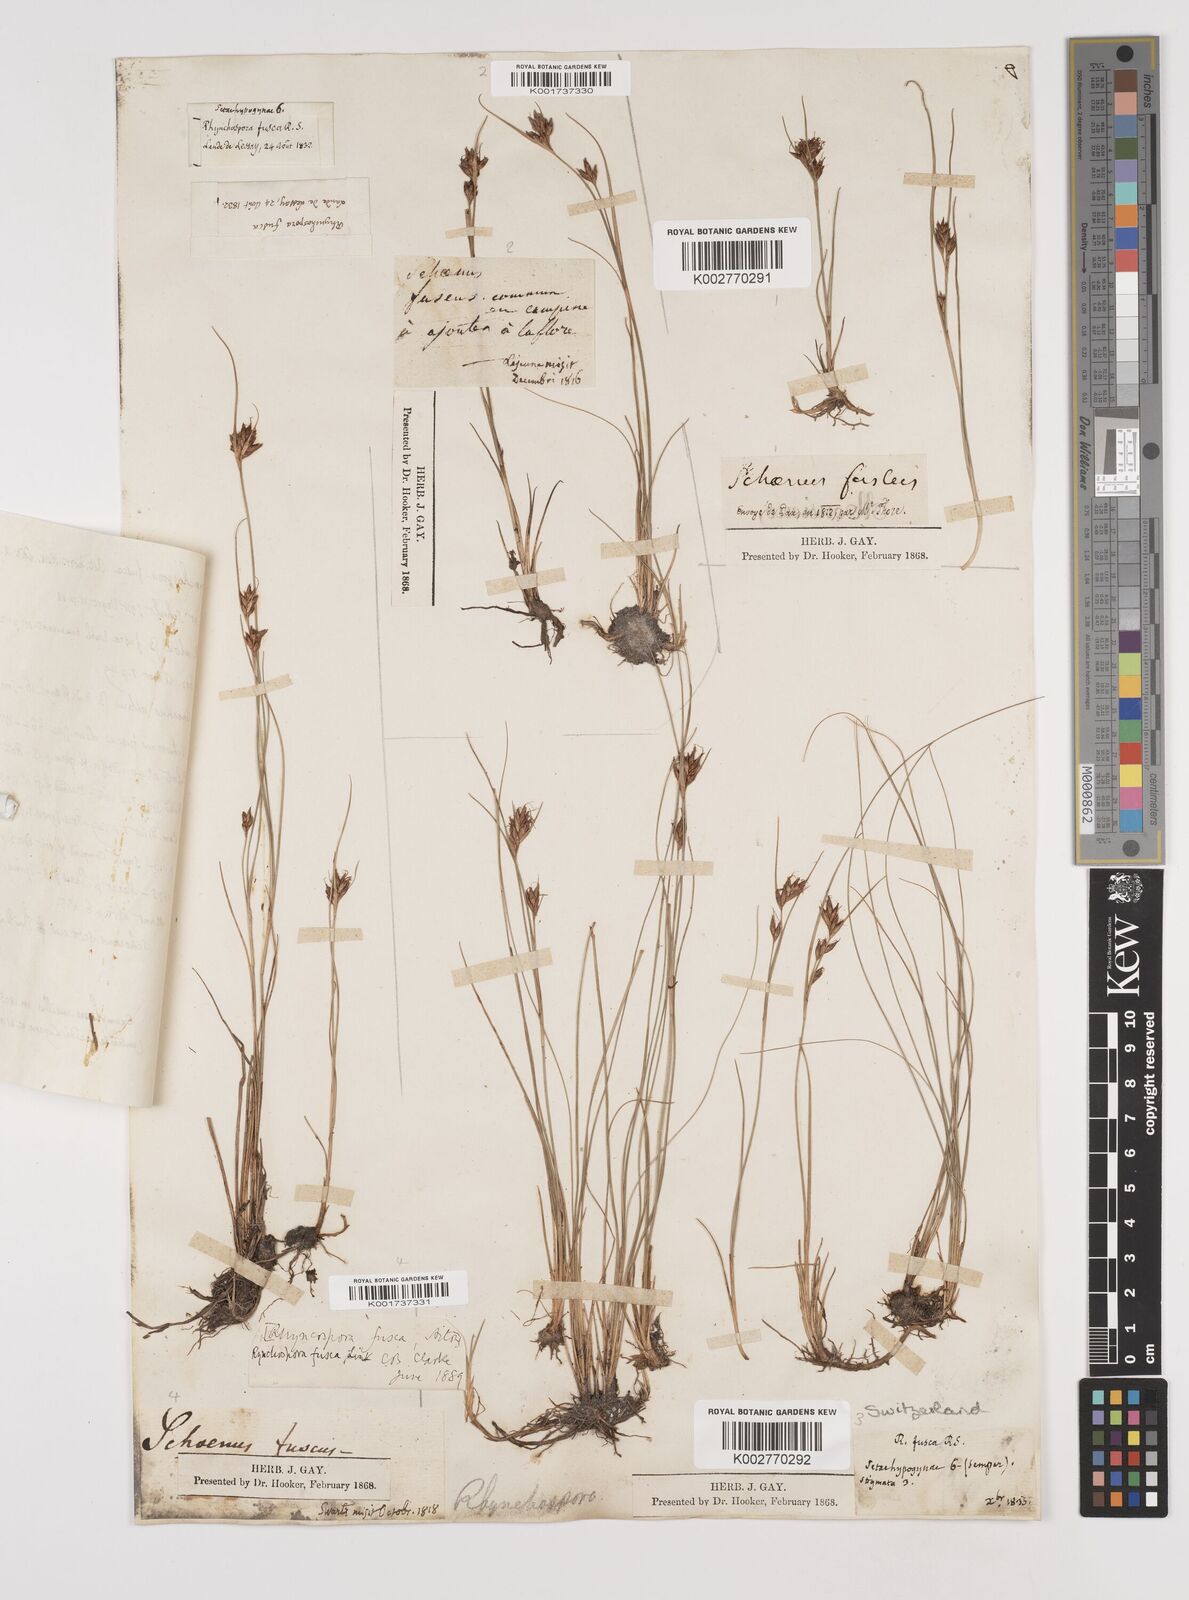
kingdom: Plantae
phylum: Tracheophyta
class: Liliopsida
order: Poales
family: Cyperaceae
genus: Rhynchospora
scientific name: Rhynchospora fusca
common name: Brown beak-sedge
